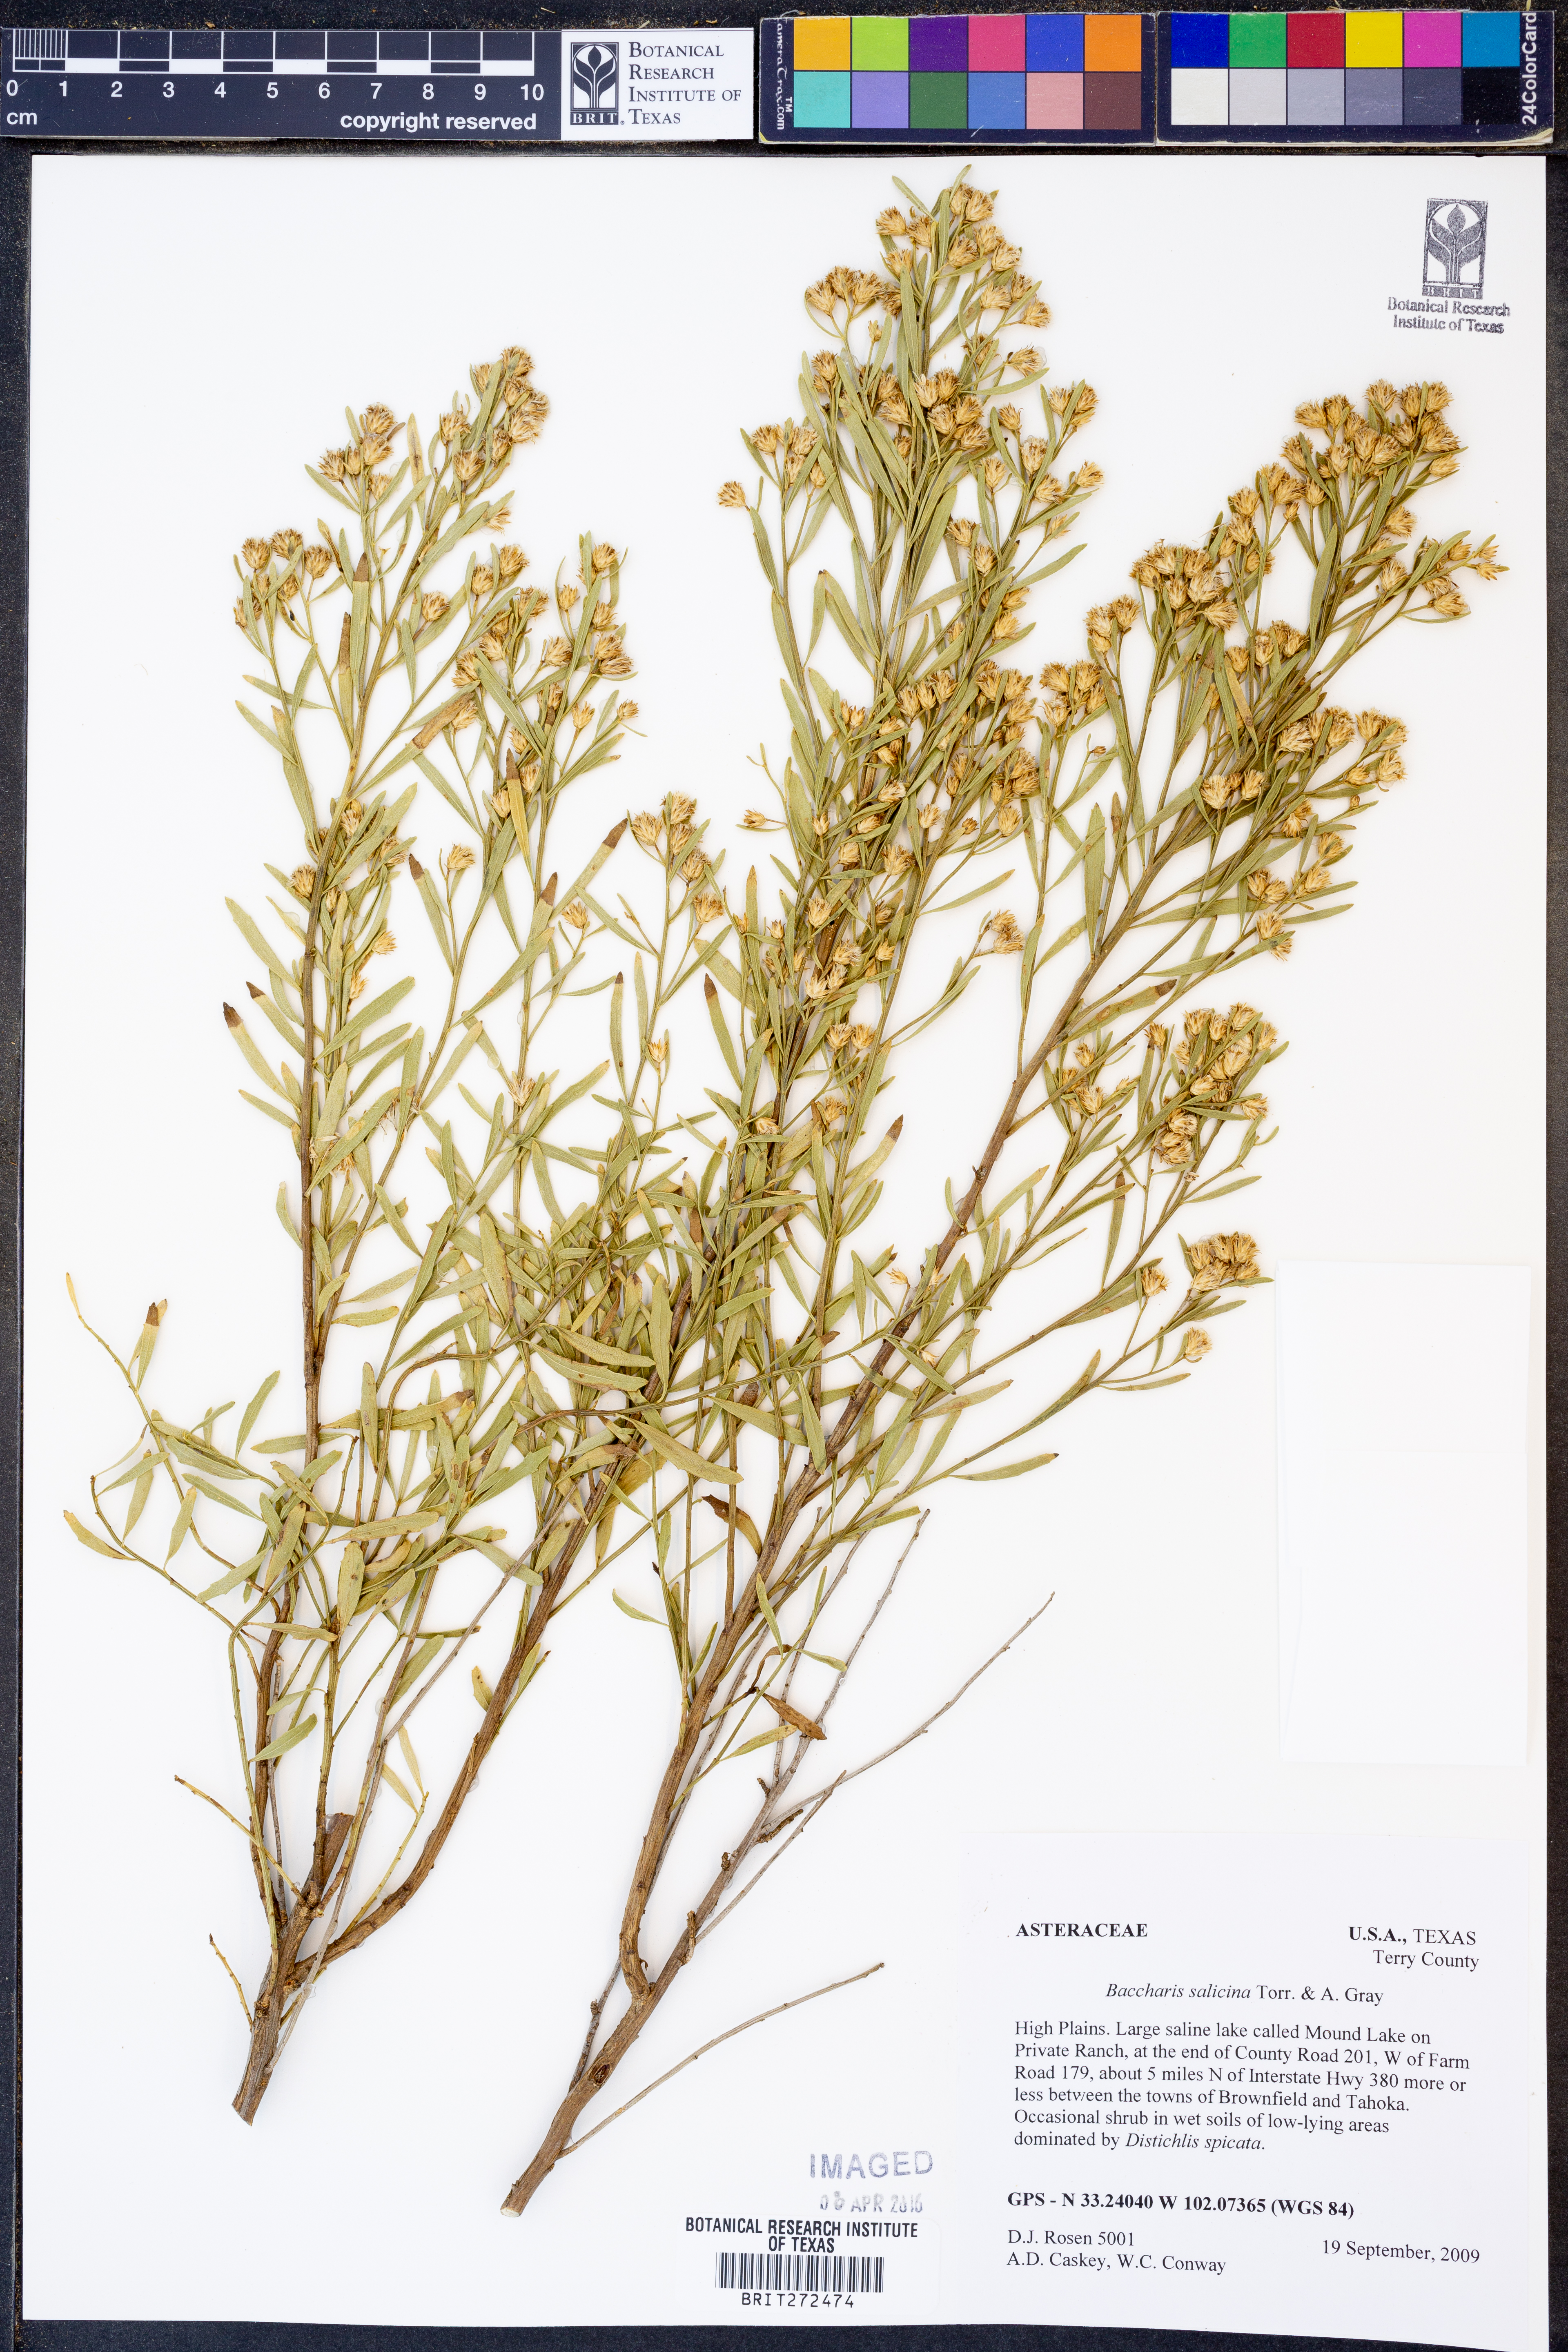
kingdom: Plantae
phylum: Tracheophyta
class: Magnoliopsida
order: Asterales
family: Asteraceae
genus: Baccharis
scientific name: Baccharis salicina
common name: Willow baccharis
